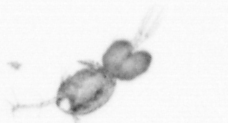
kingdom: Animalia
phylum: Arthropoda
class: Copepoda
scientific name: Copepoda
